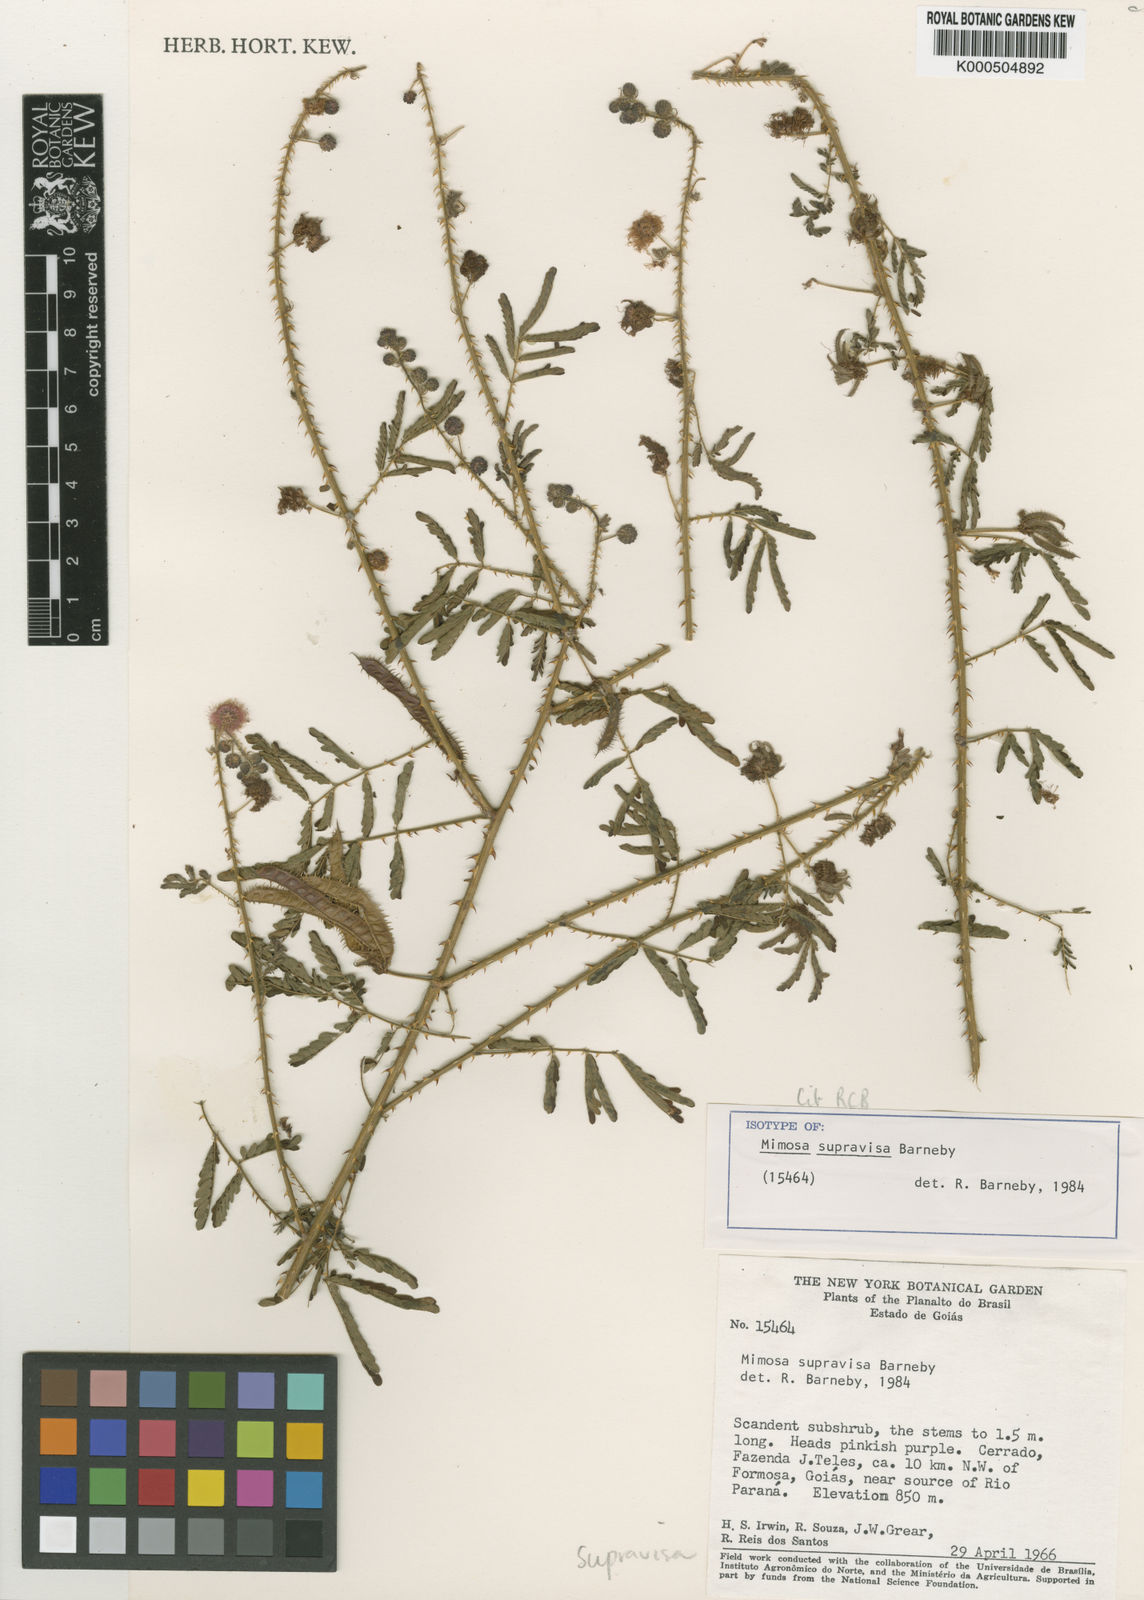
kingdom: Plantae
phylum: Tracheophyta
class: Magnoliopsida
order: Fabales
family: Fabaceae
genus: Mimosa
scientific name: Mimosa supravisa
